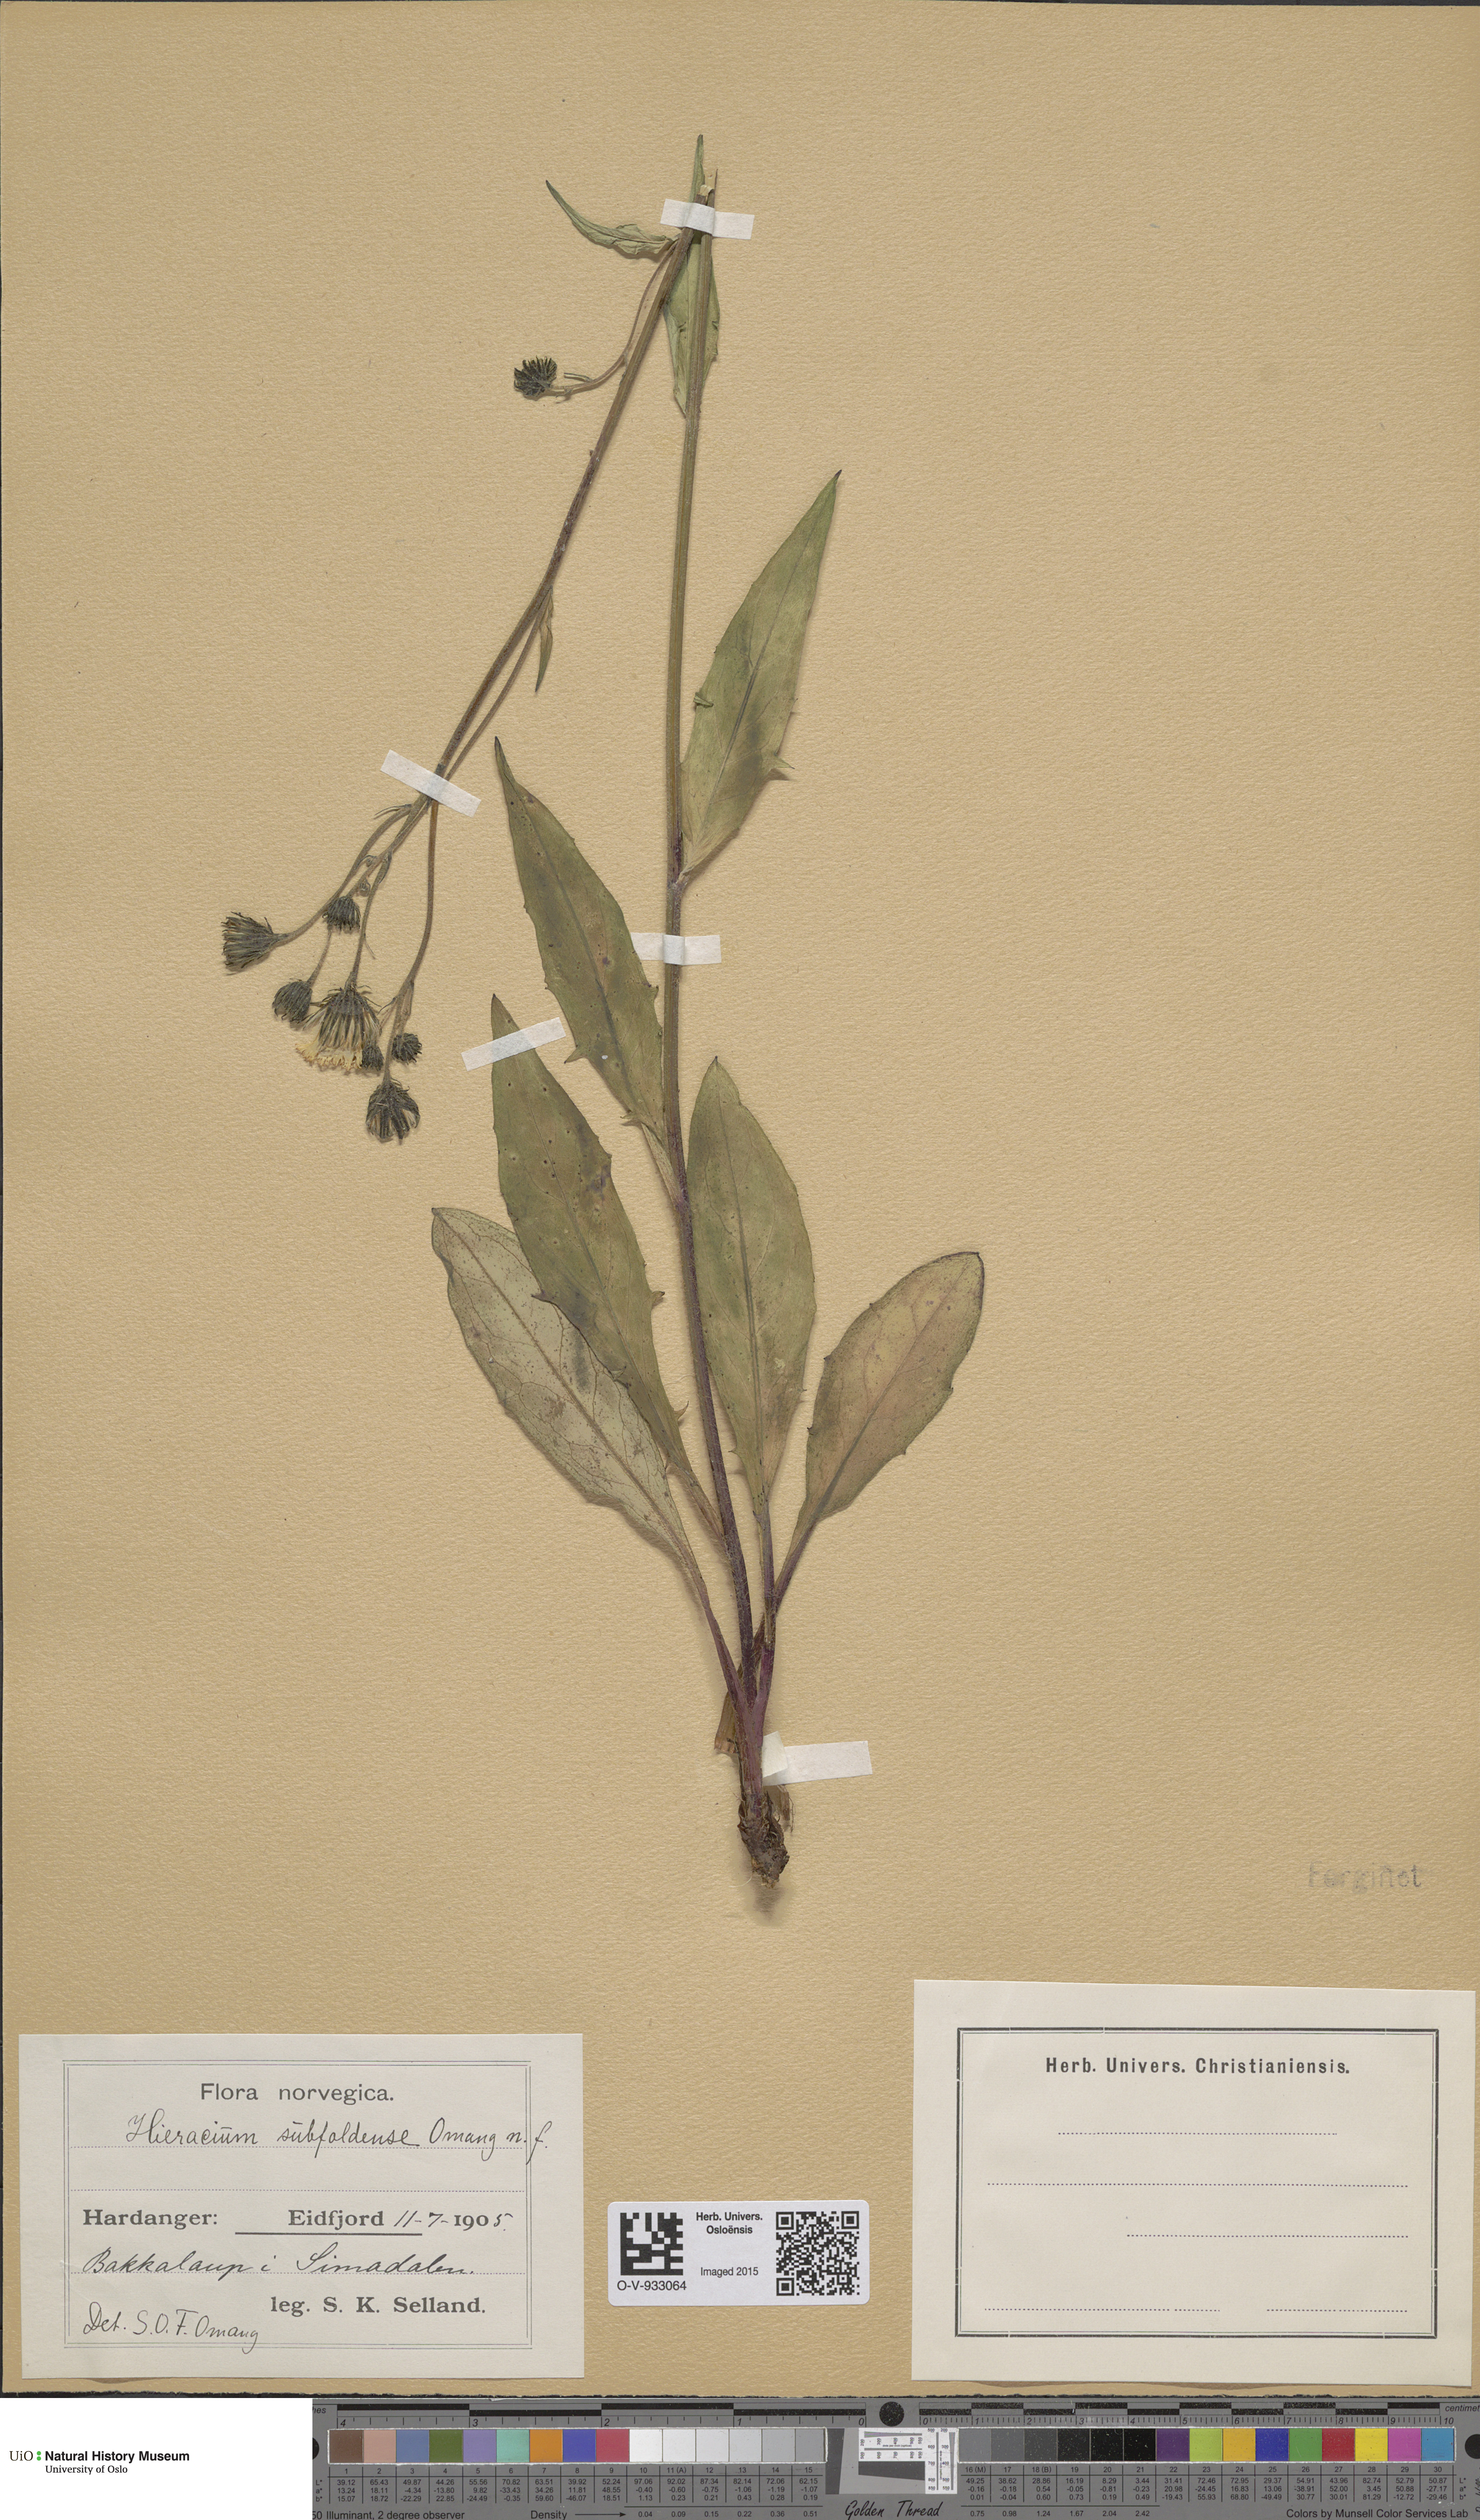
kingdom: Plantae
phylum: Tracheophyta
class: Magnoliopsida
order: Asterales
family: Asteraceae
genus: Hieracium
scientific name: Hieracium
